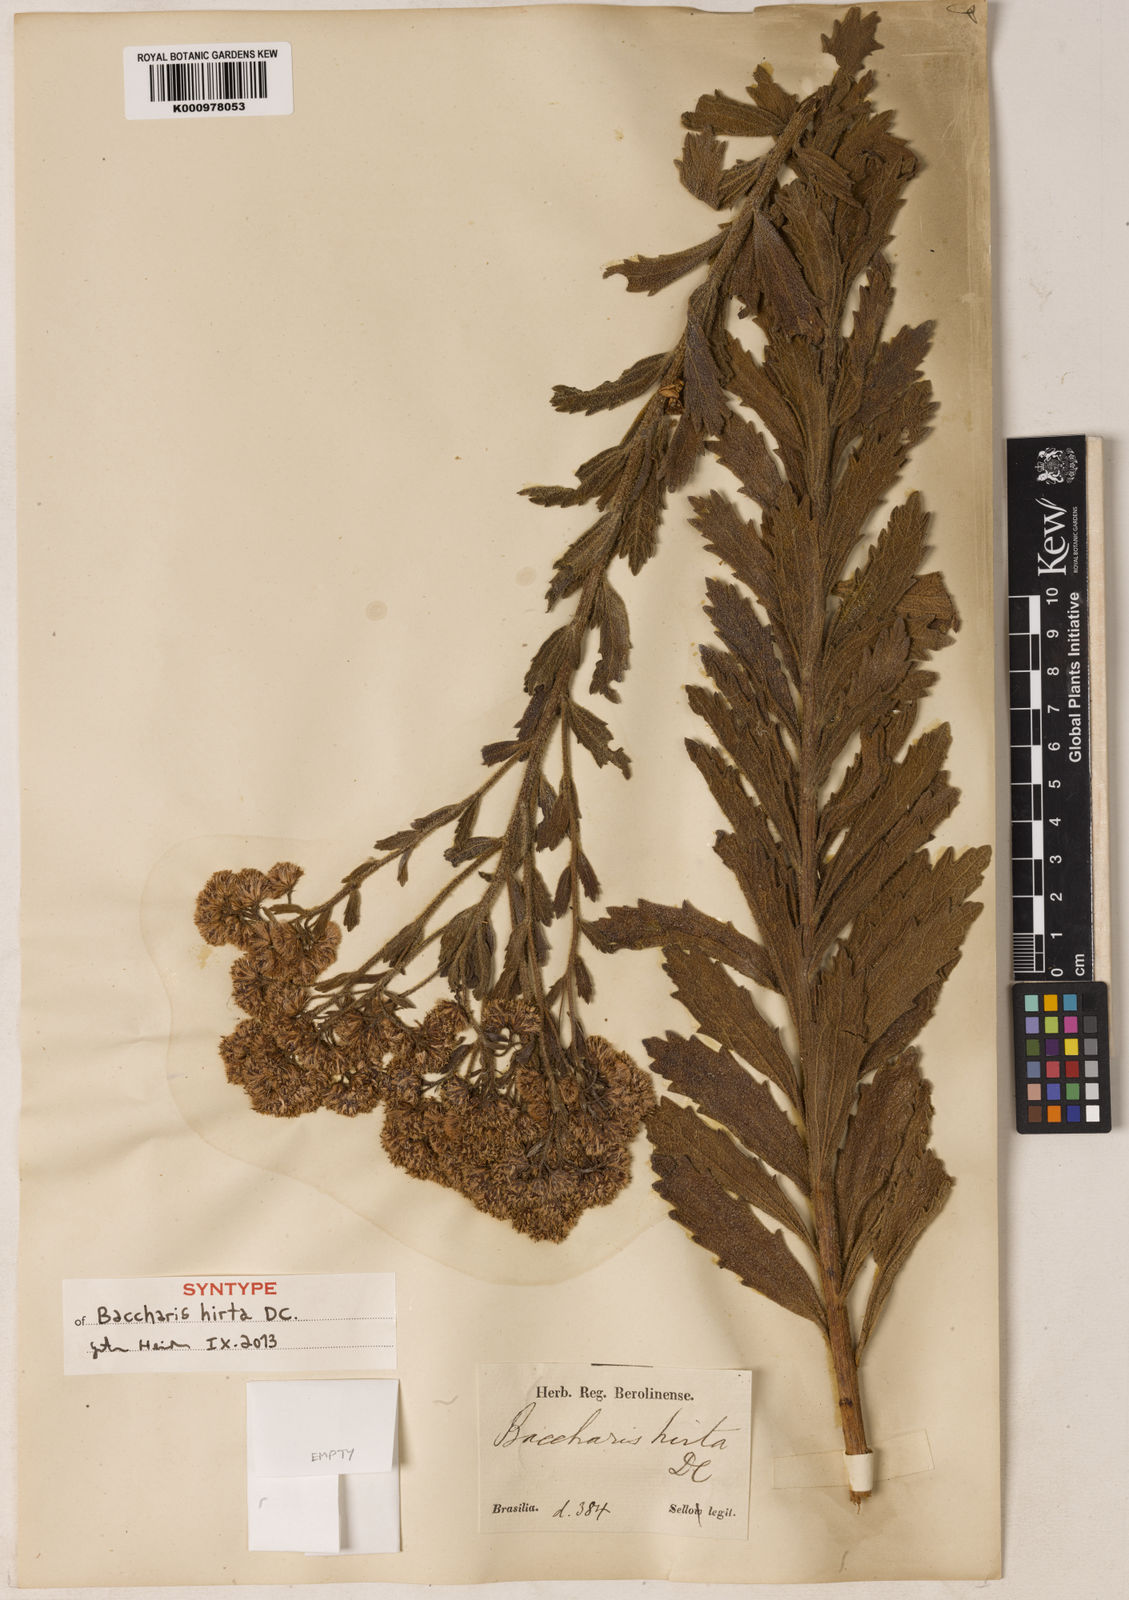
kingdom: Plantae
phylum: Tracheophyta
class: Magnoliopsida
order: Asterales
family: Asteraceae
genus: Baccharis
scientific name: Baccharis hirta
